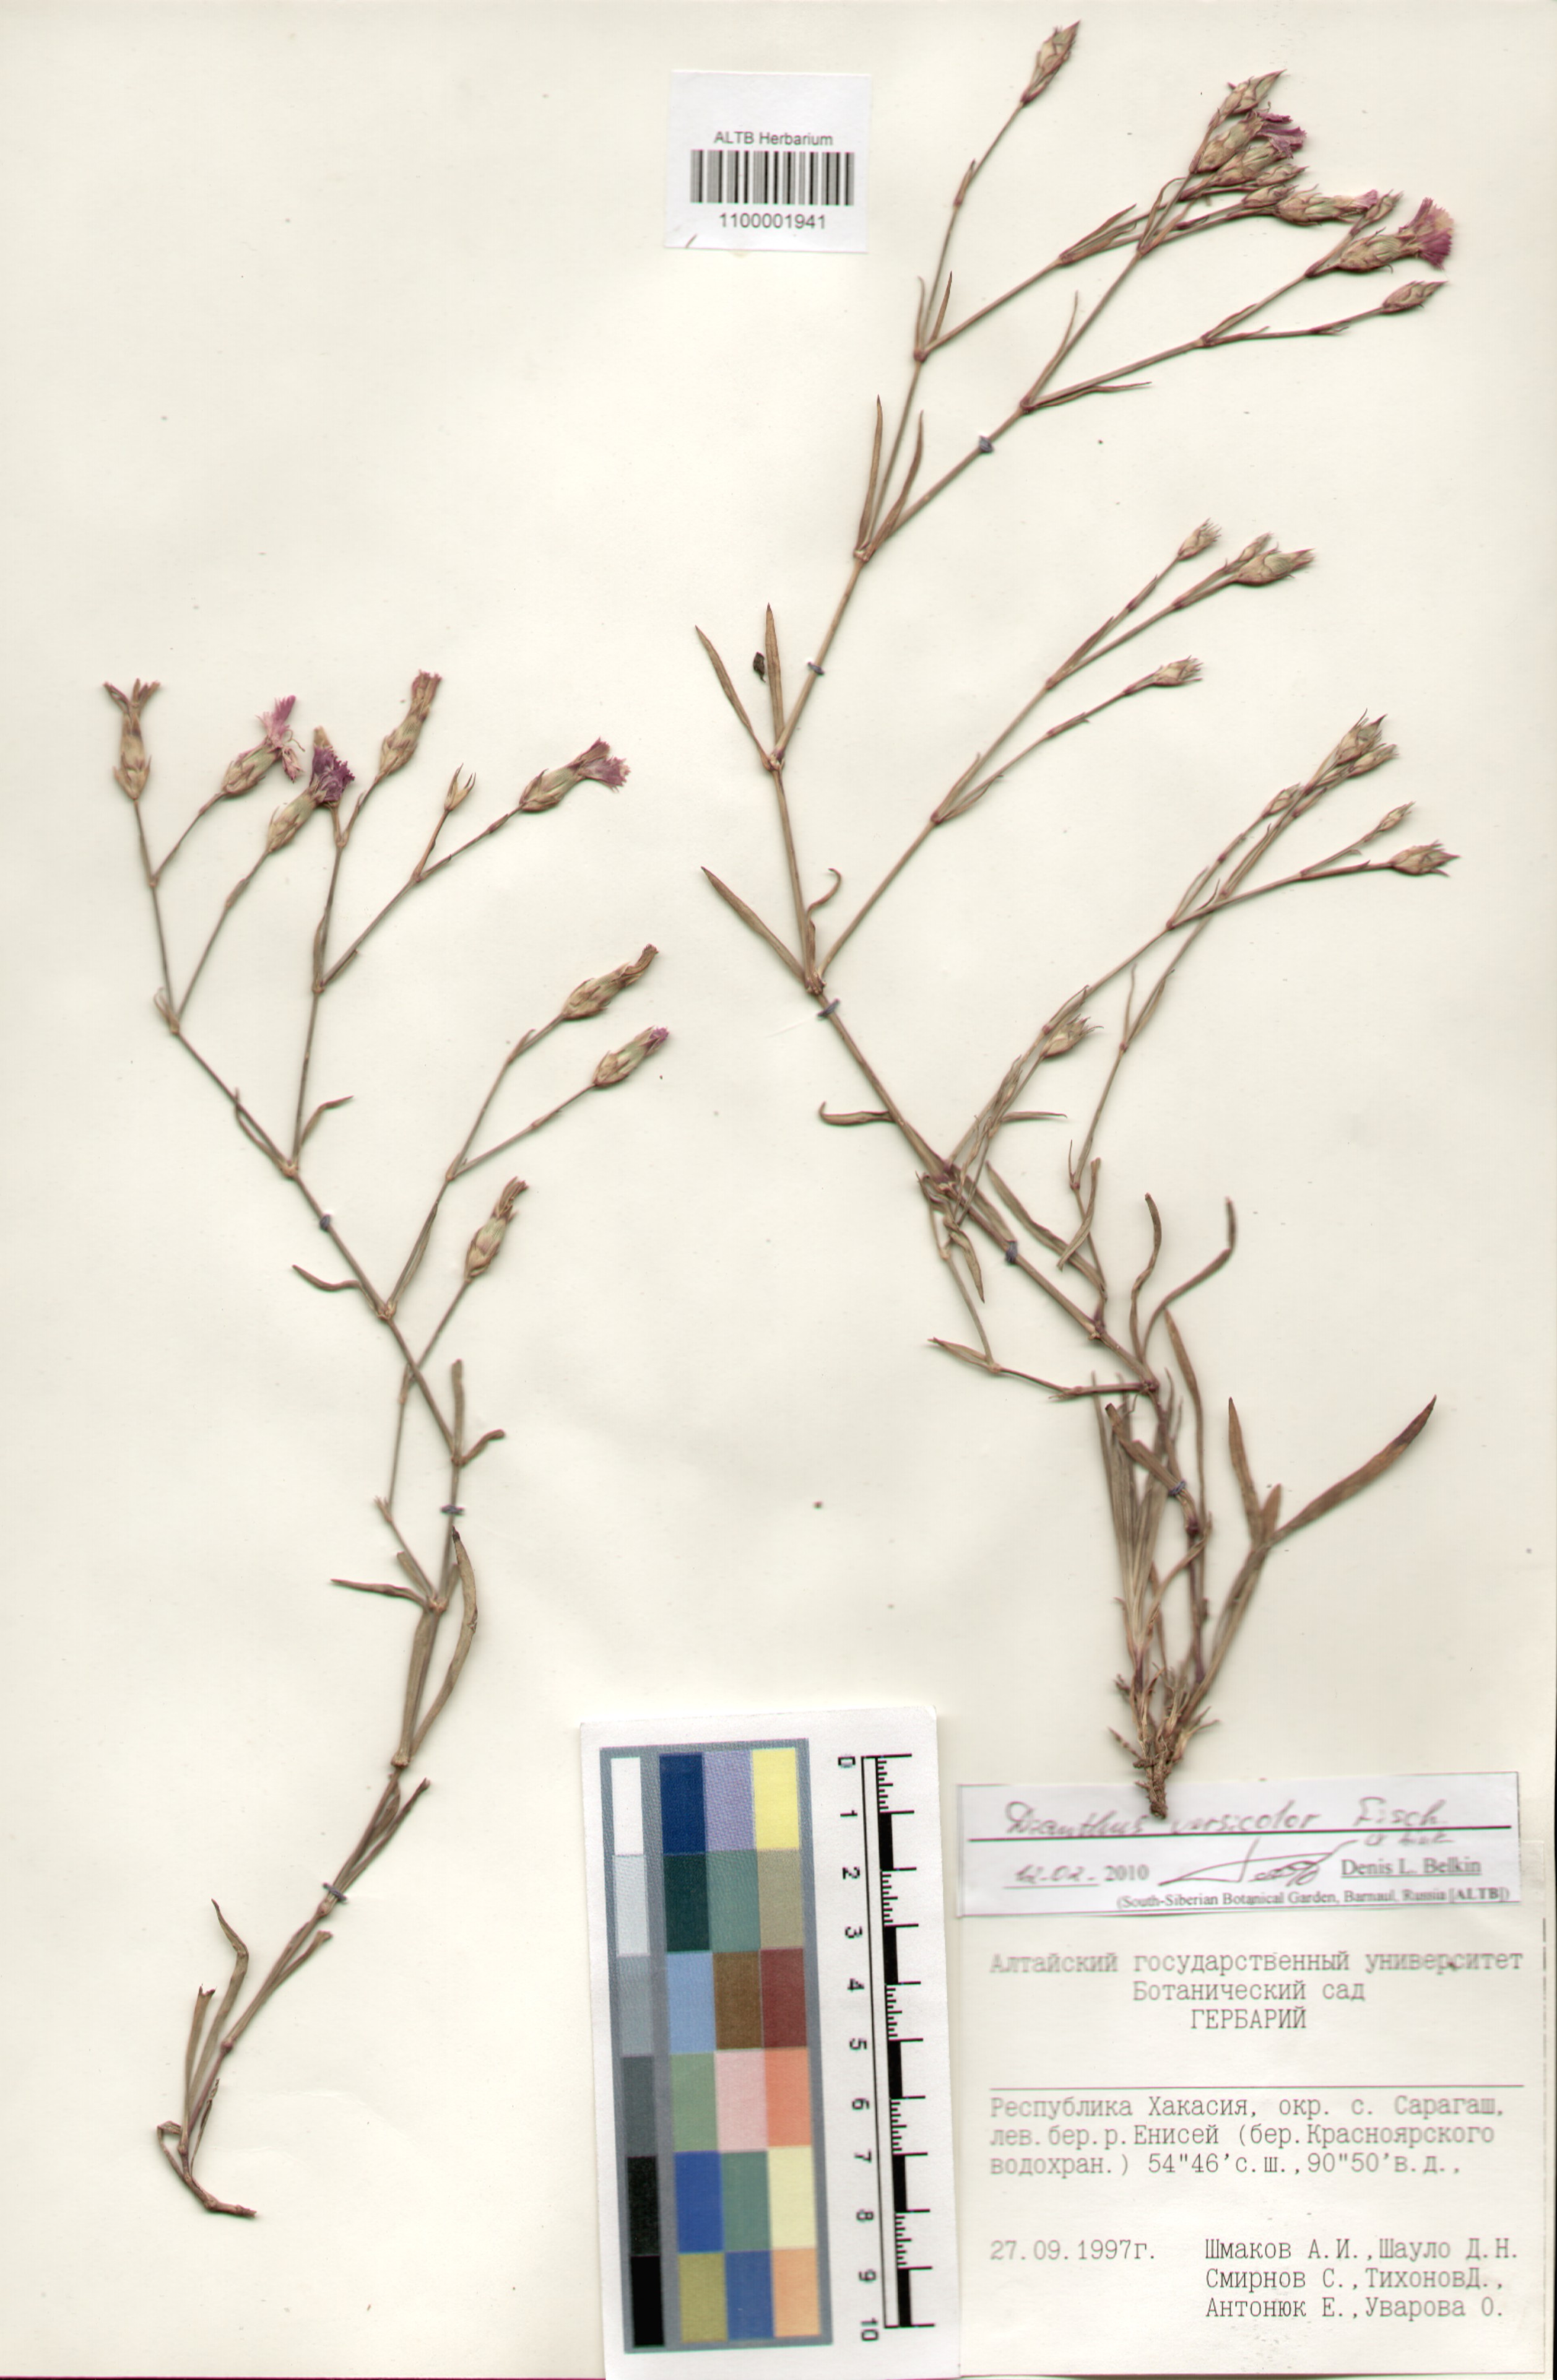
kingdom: Plantae
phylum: Tracheophyta
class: Magnoliopsida
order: Caryophyllales
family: Caryophyllaceae
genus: Dianthus
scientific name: Dianthus chinensis
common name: Rainbow pink
